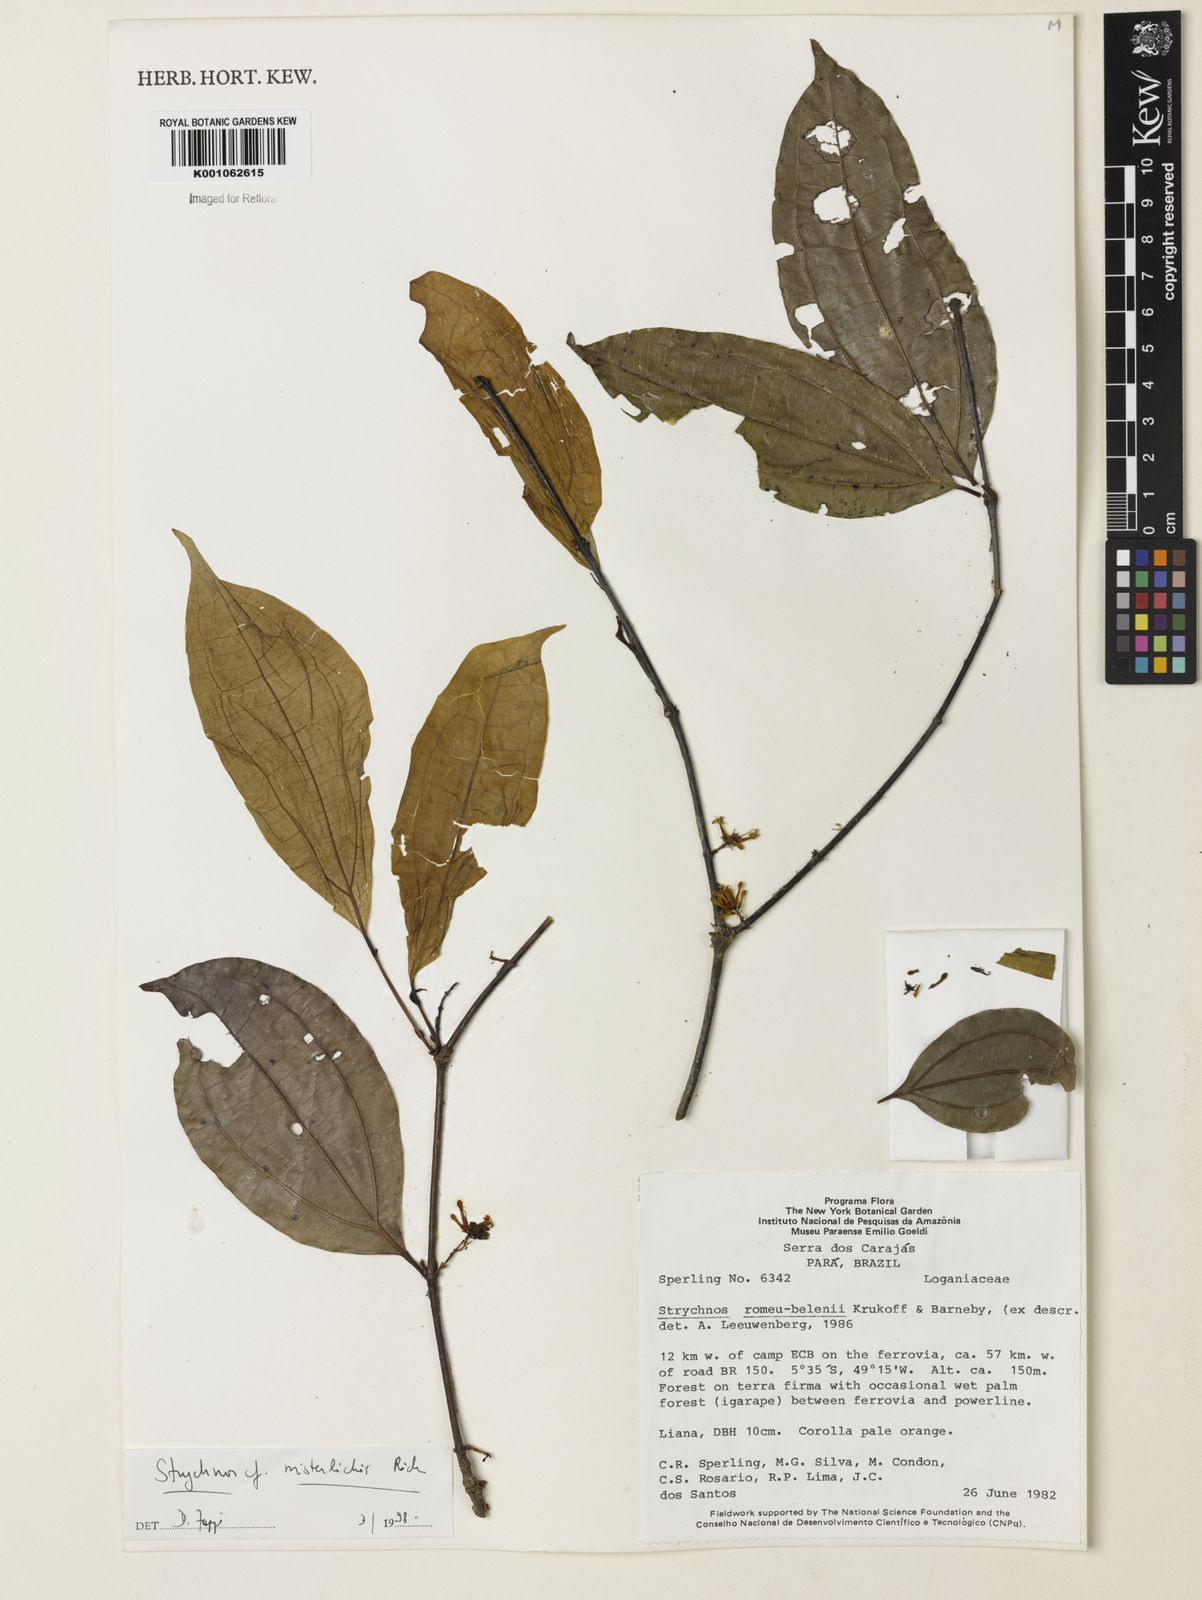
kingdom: Plantae
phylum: Tracheophyta
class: Magnoliopsida
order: Gentianales
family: Loganiaceae
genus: Strychnos
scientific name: Strychnos mitscherlichii
